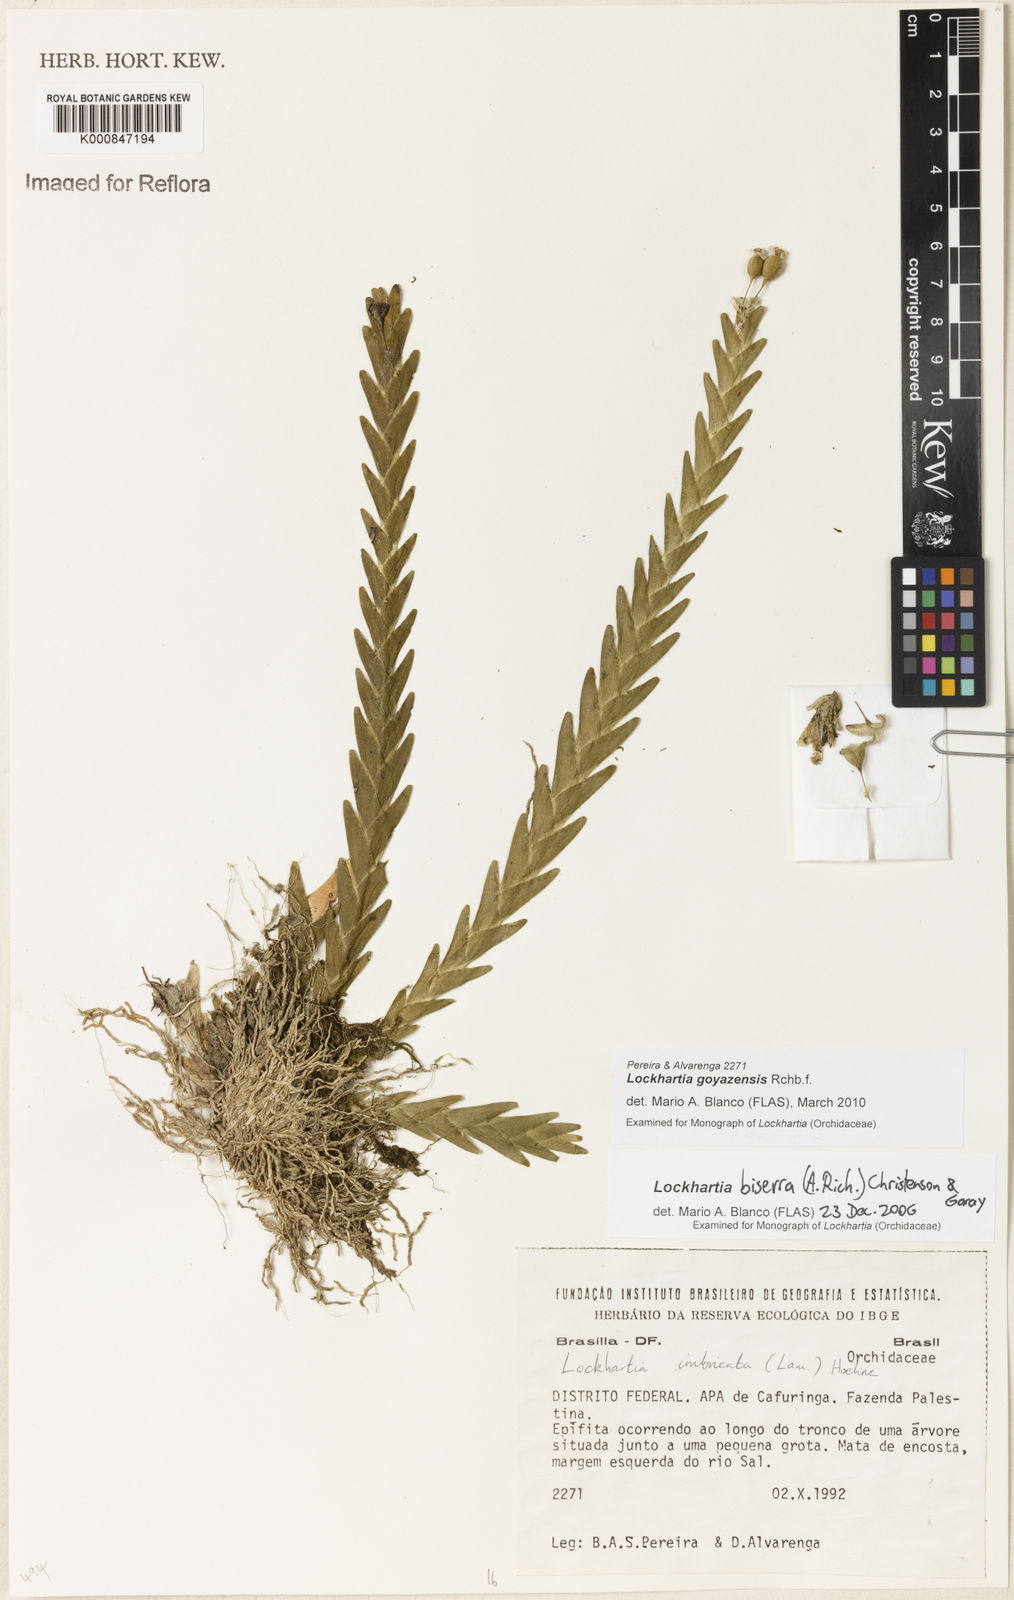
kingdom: Plantae
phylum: Tracheophyta
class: Liliopsida
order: Asparagales
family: Orchidaceae
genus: Lockhartia
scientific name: Lockhartia goyazensis
